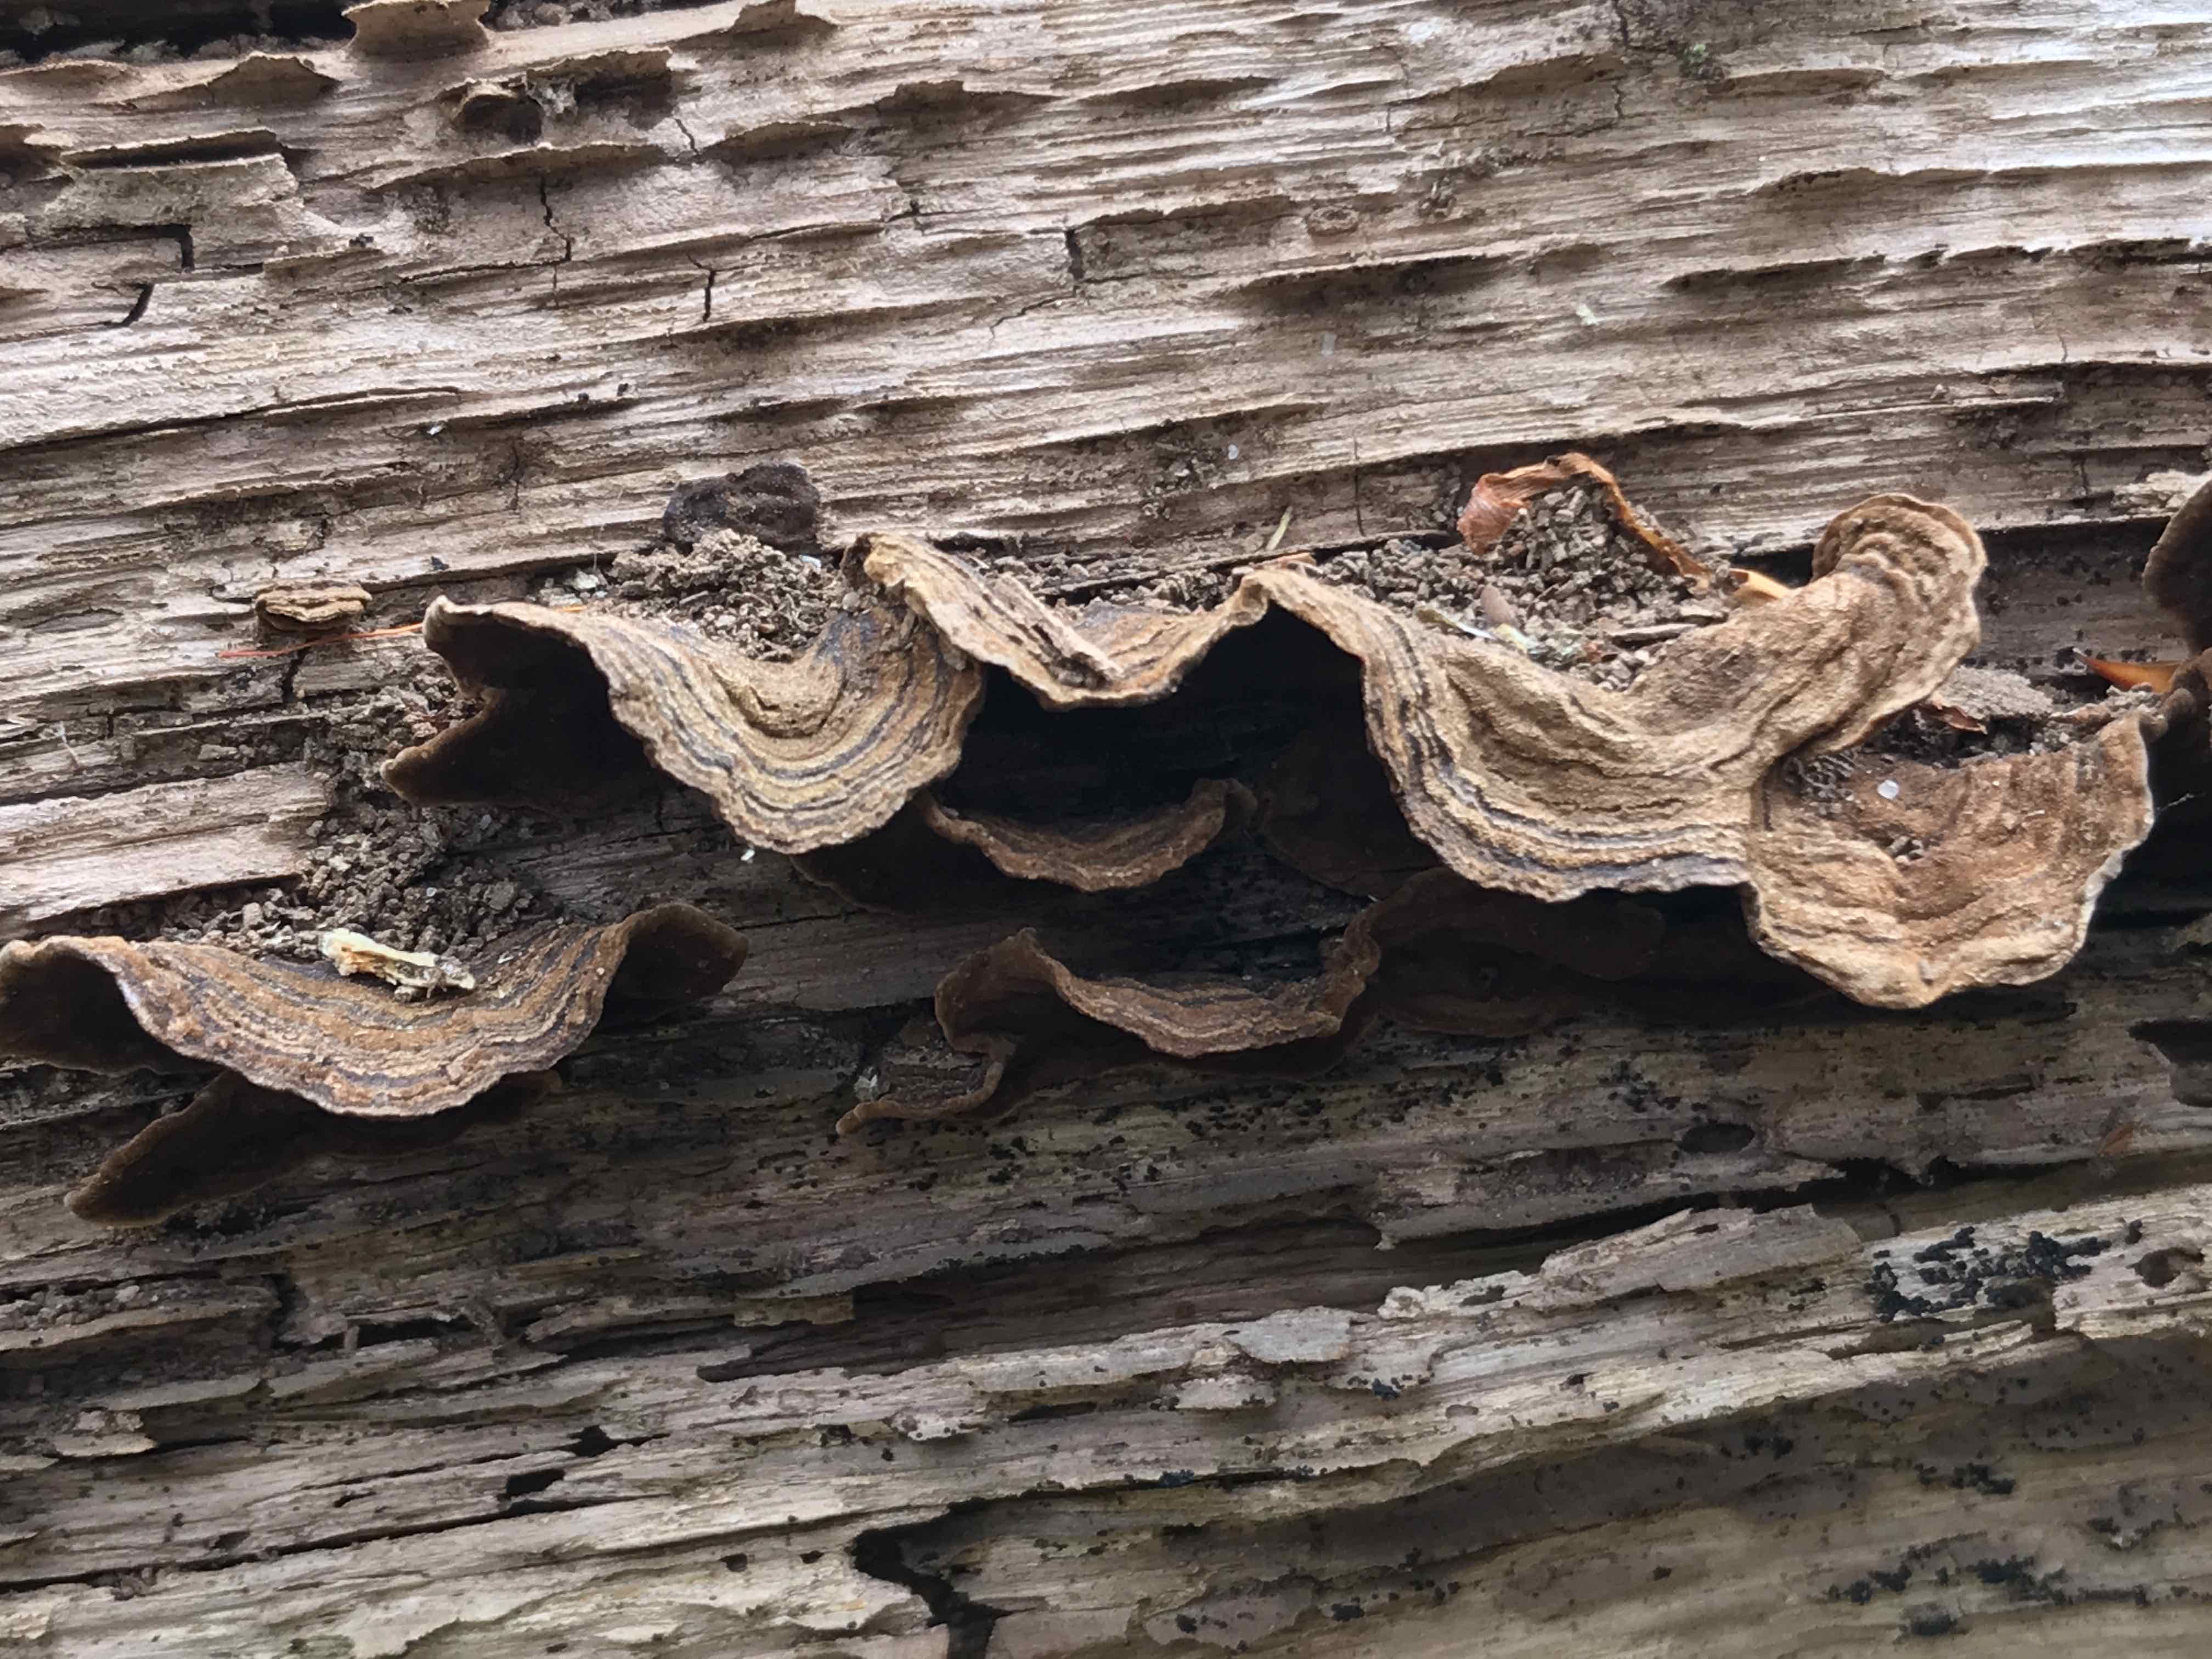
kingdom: Fungi
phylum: Basidiomycota
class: Agaricomycetes
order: Hymenochaetales
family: Hymenochaetaceae
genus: Hymenochaete
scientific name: Hymenochaete rubiginosa
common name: stiv ruslædersvamp
